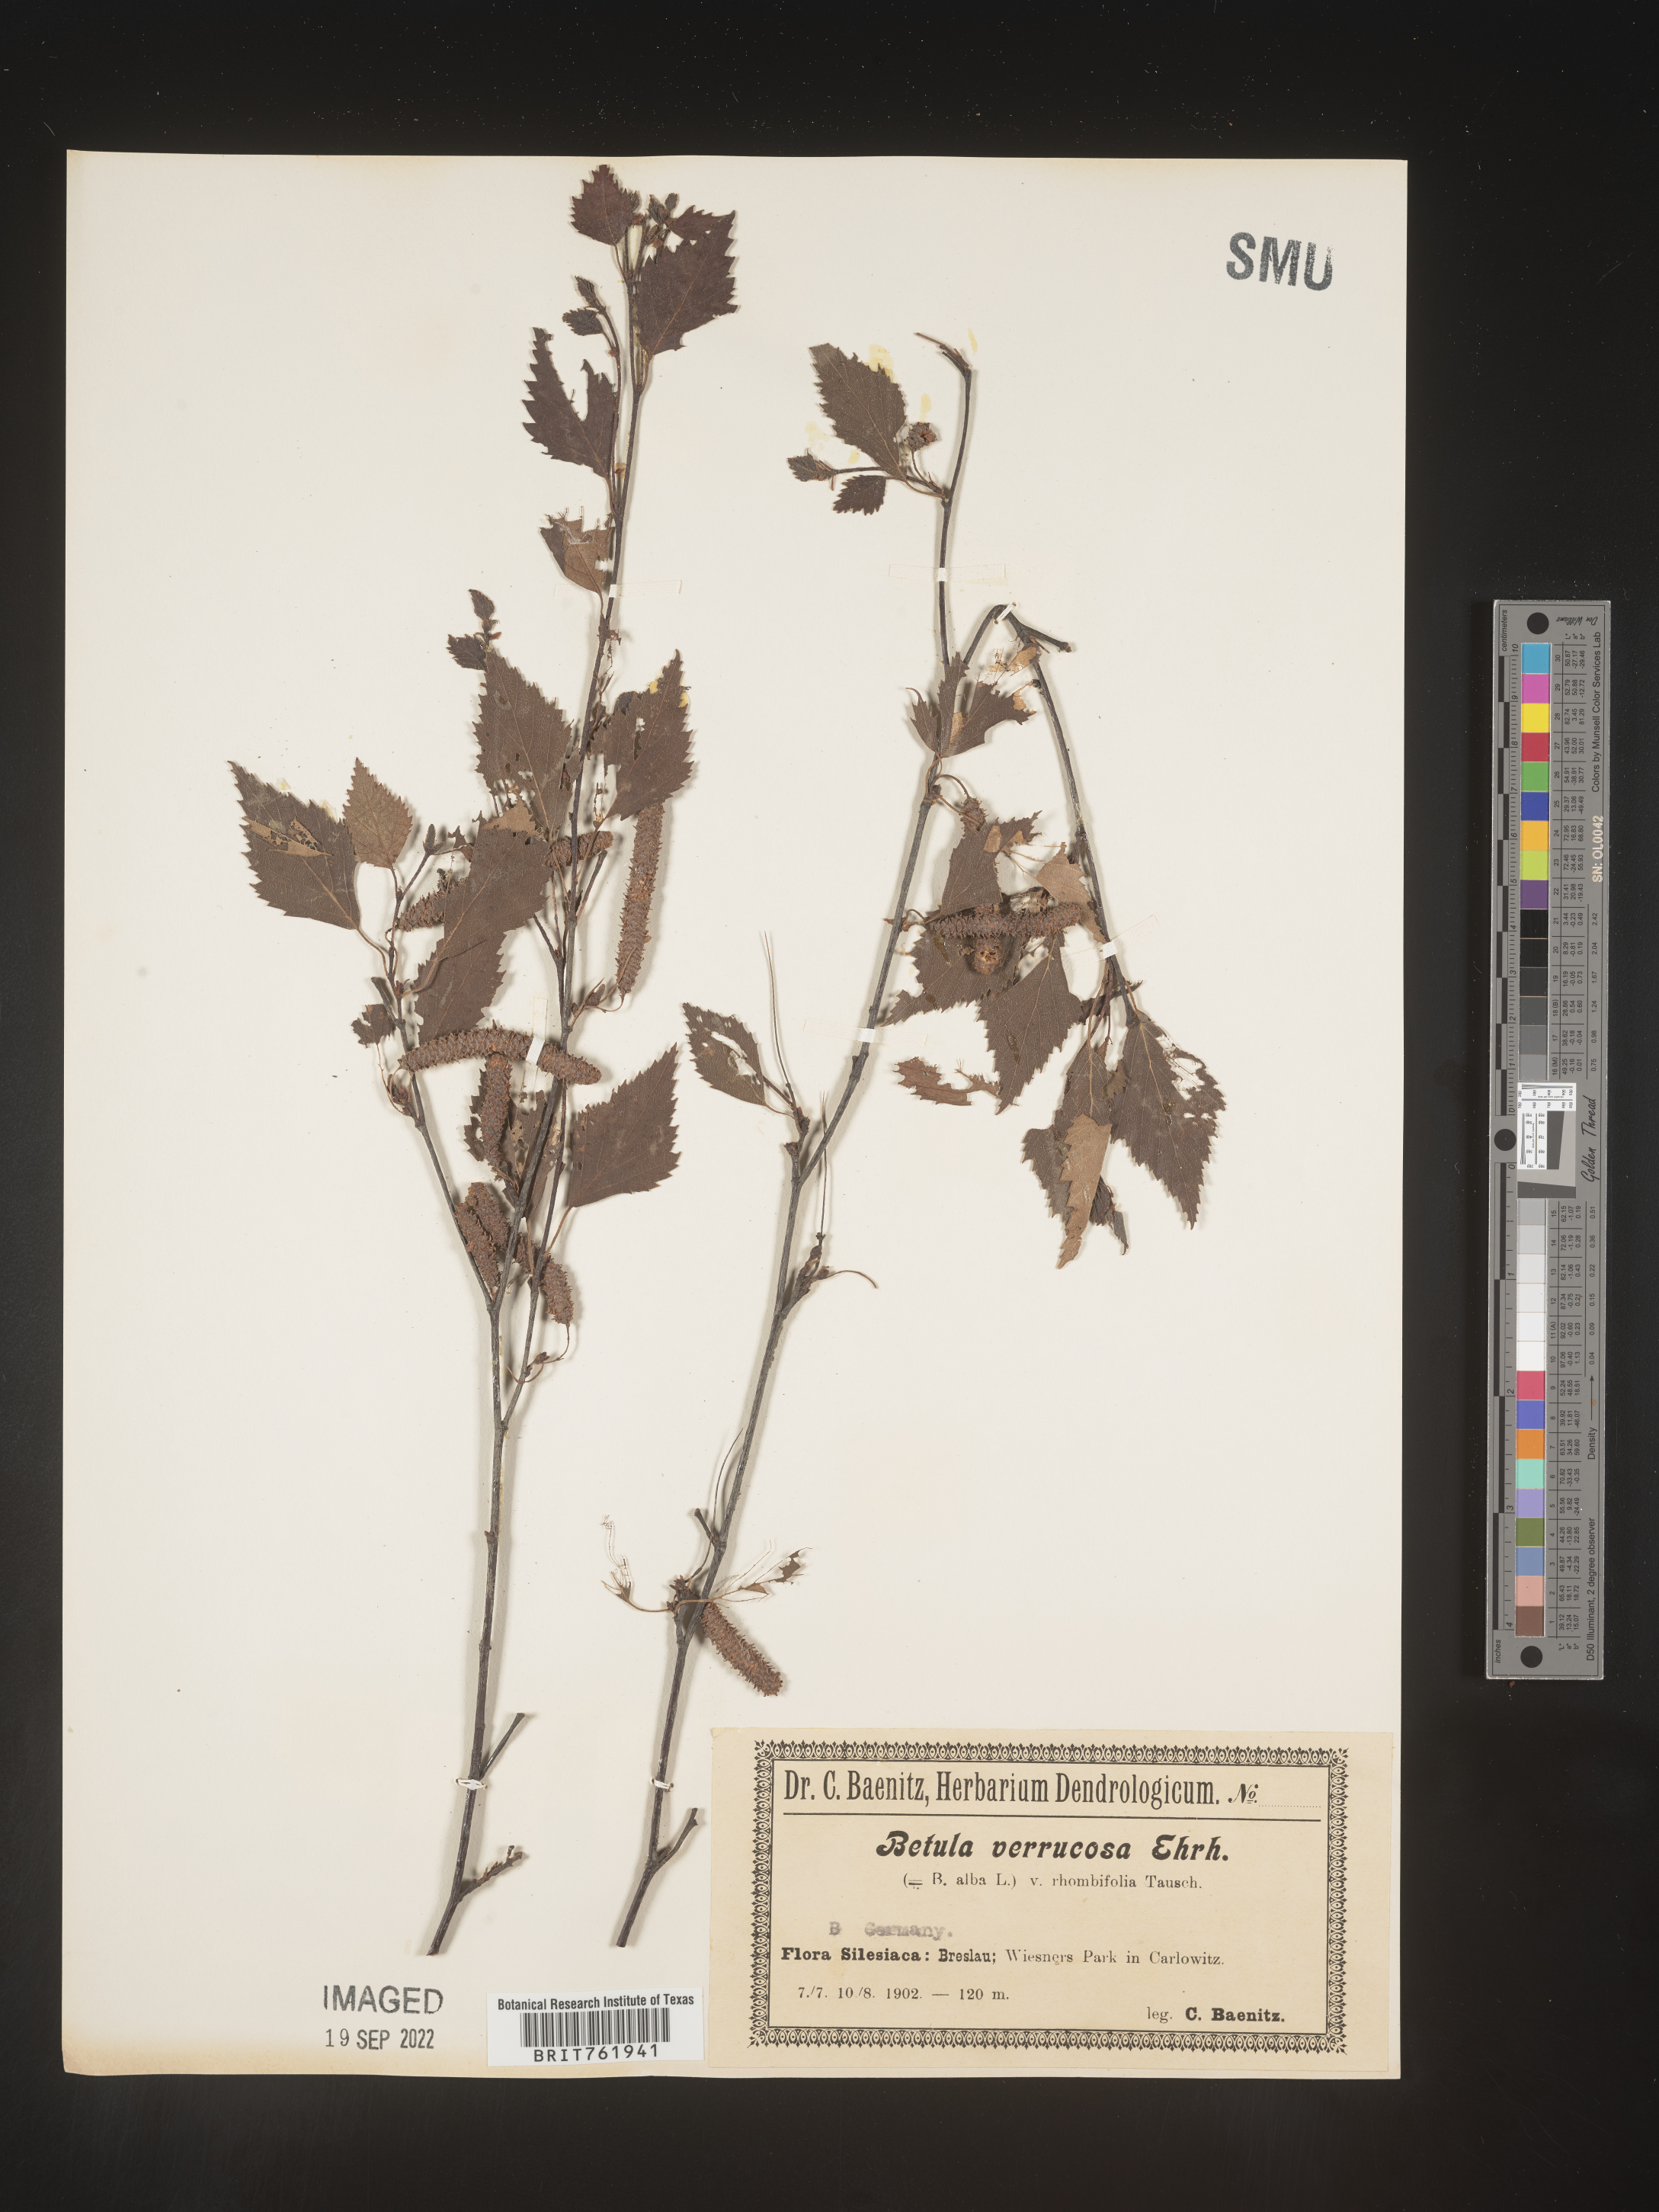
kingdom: Plantae
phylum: Tracheophyta
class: Magnoliopsida
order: Fagales
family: Betulaceae
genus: Betula
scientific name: Betula
